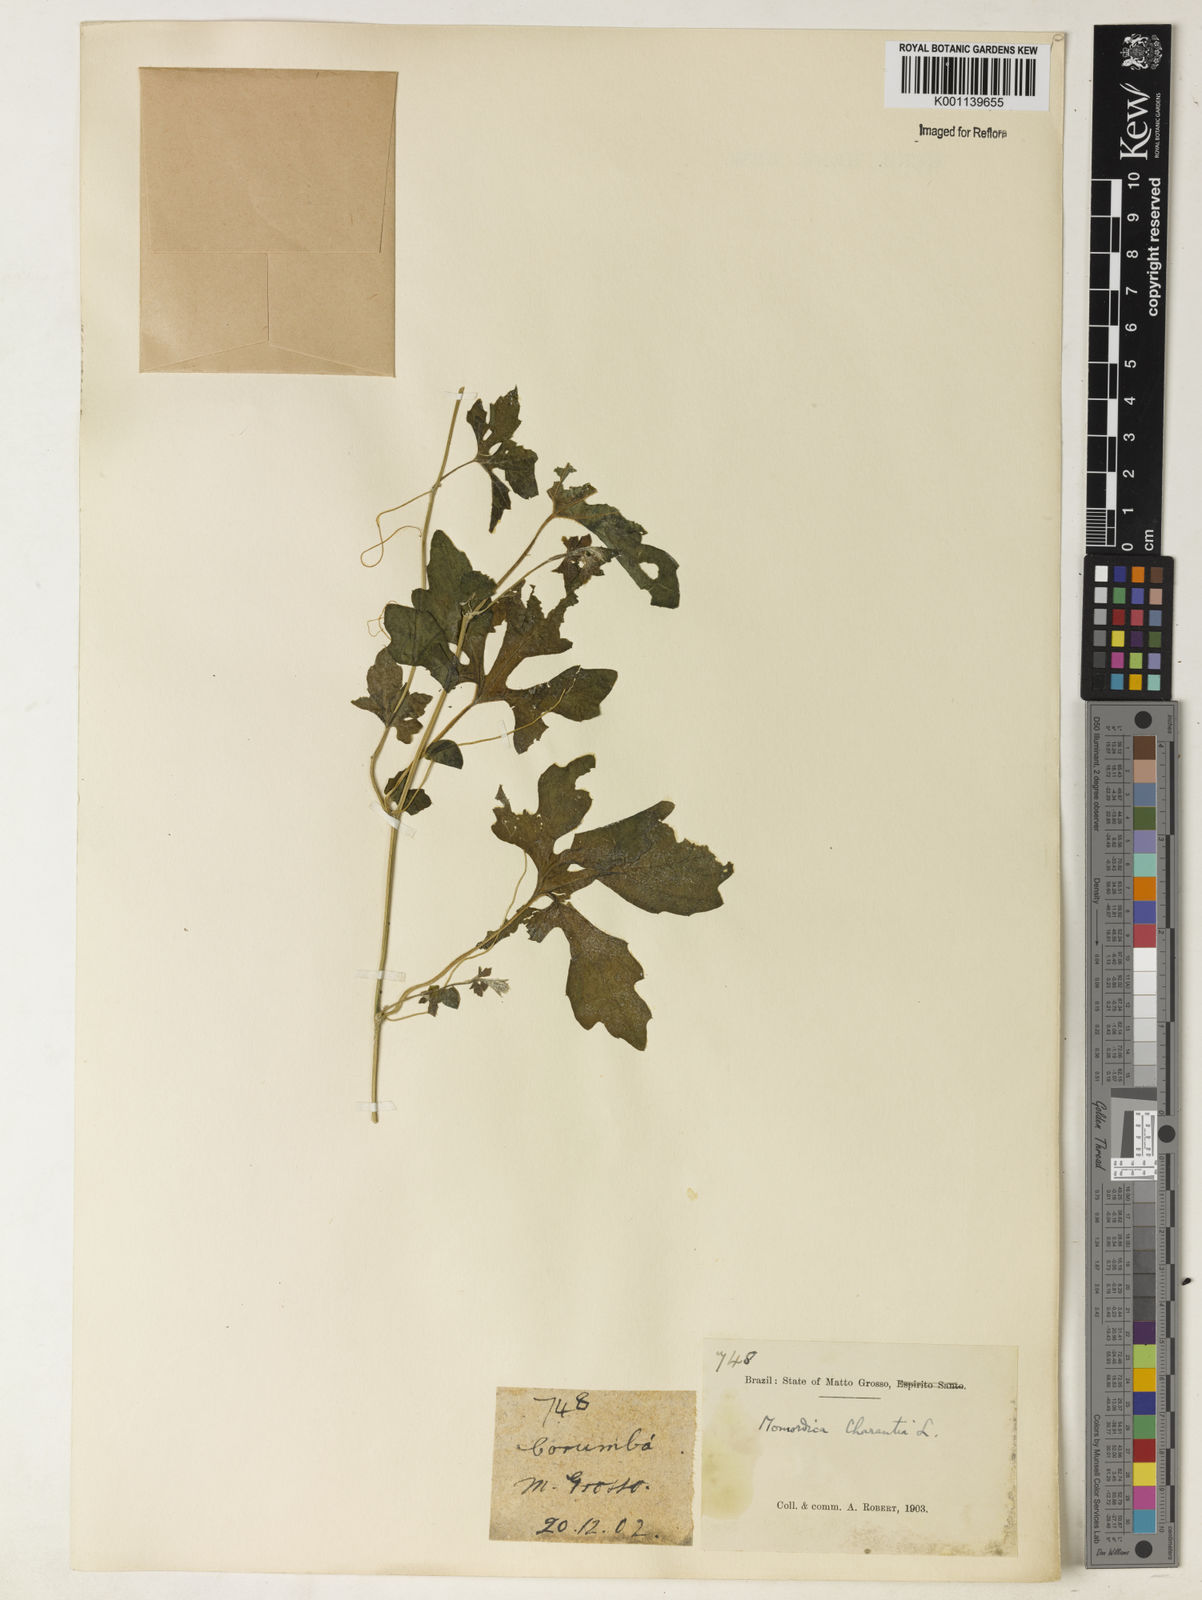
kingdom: Plantae
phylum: Tracheophyta
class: Magnoliopsida
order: Cucurbitales
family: Cucurbitaceae
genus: Momordica
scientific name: Momordica charantia
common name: Balsampear
